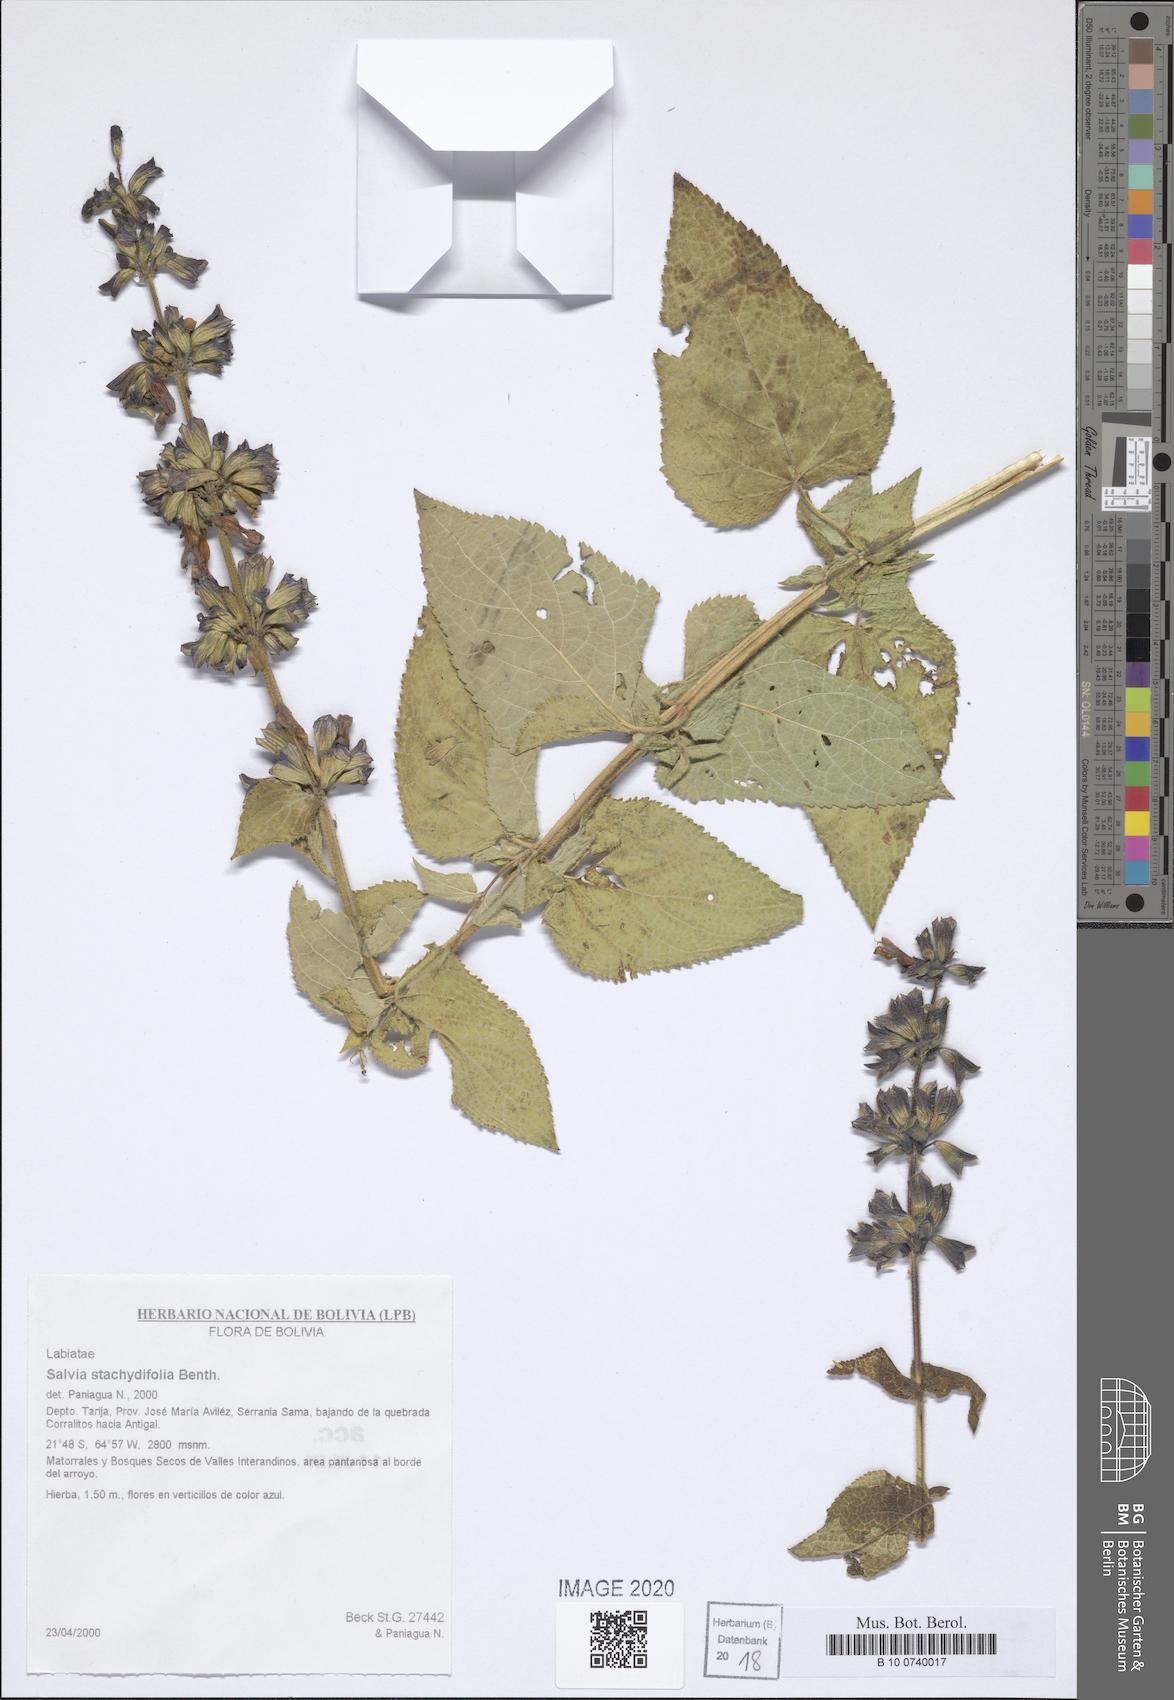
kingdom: Plantae
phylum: Tracheophyta
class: Magnoliopsida
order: Lamiales
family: Lamiaceae
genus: Salvia
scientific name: Salvia stachydifolia
